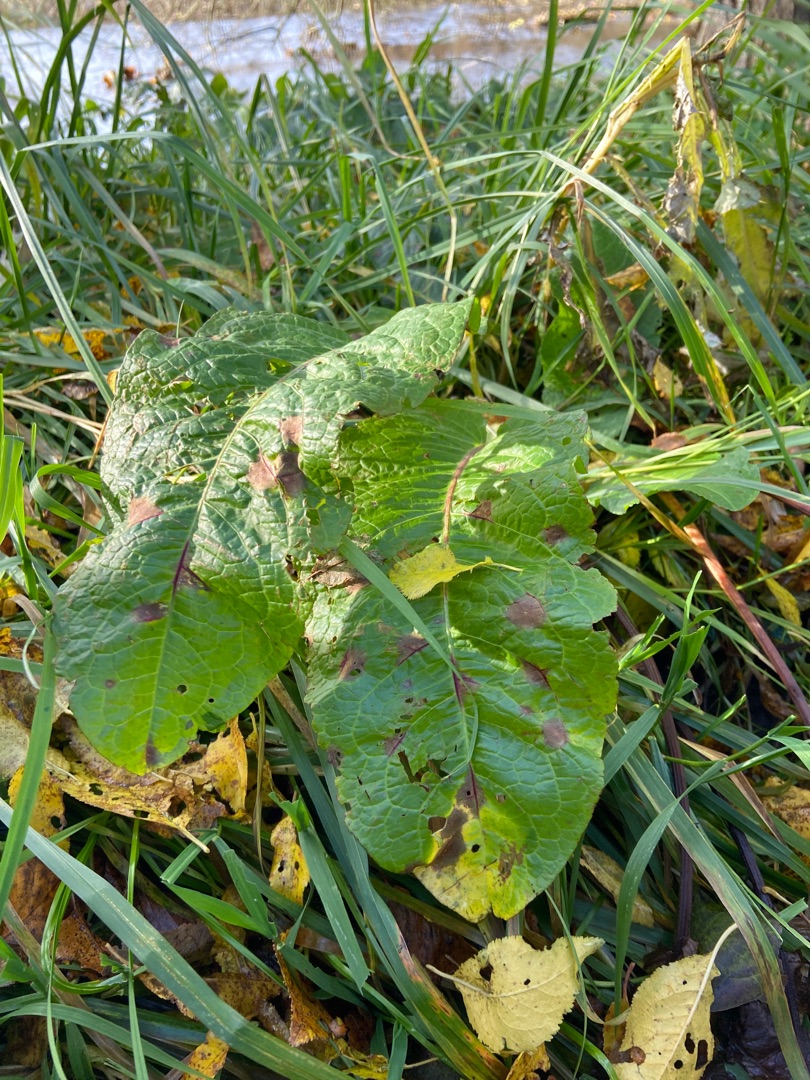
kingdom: Plantae
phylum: Tracheophyta
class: Magnoliopsida
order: Caryophyllales
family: Polygonaceae
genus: Rumex
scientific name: Rumex obtusifolius
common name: Butbladet skræppe
